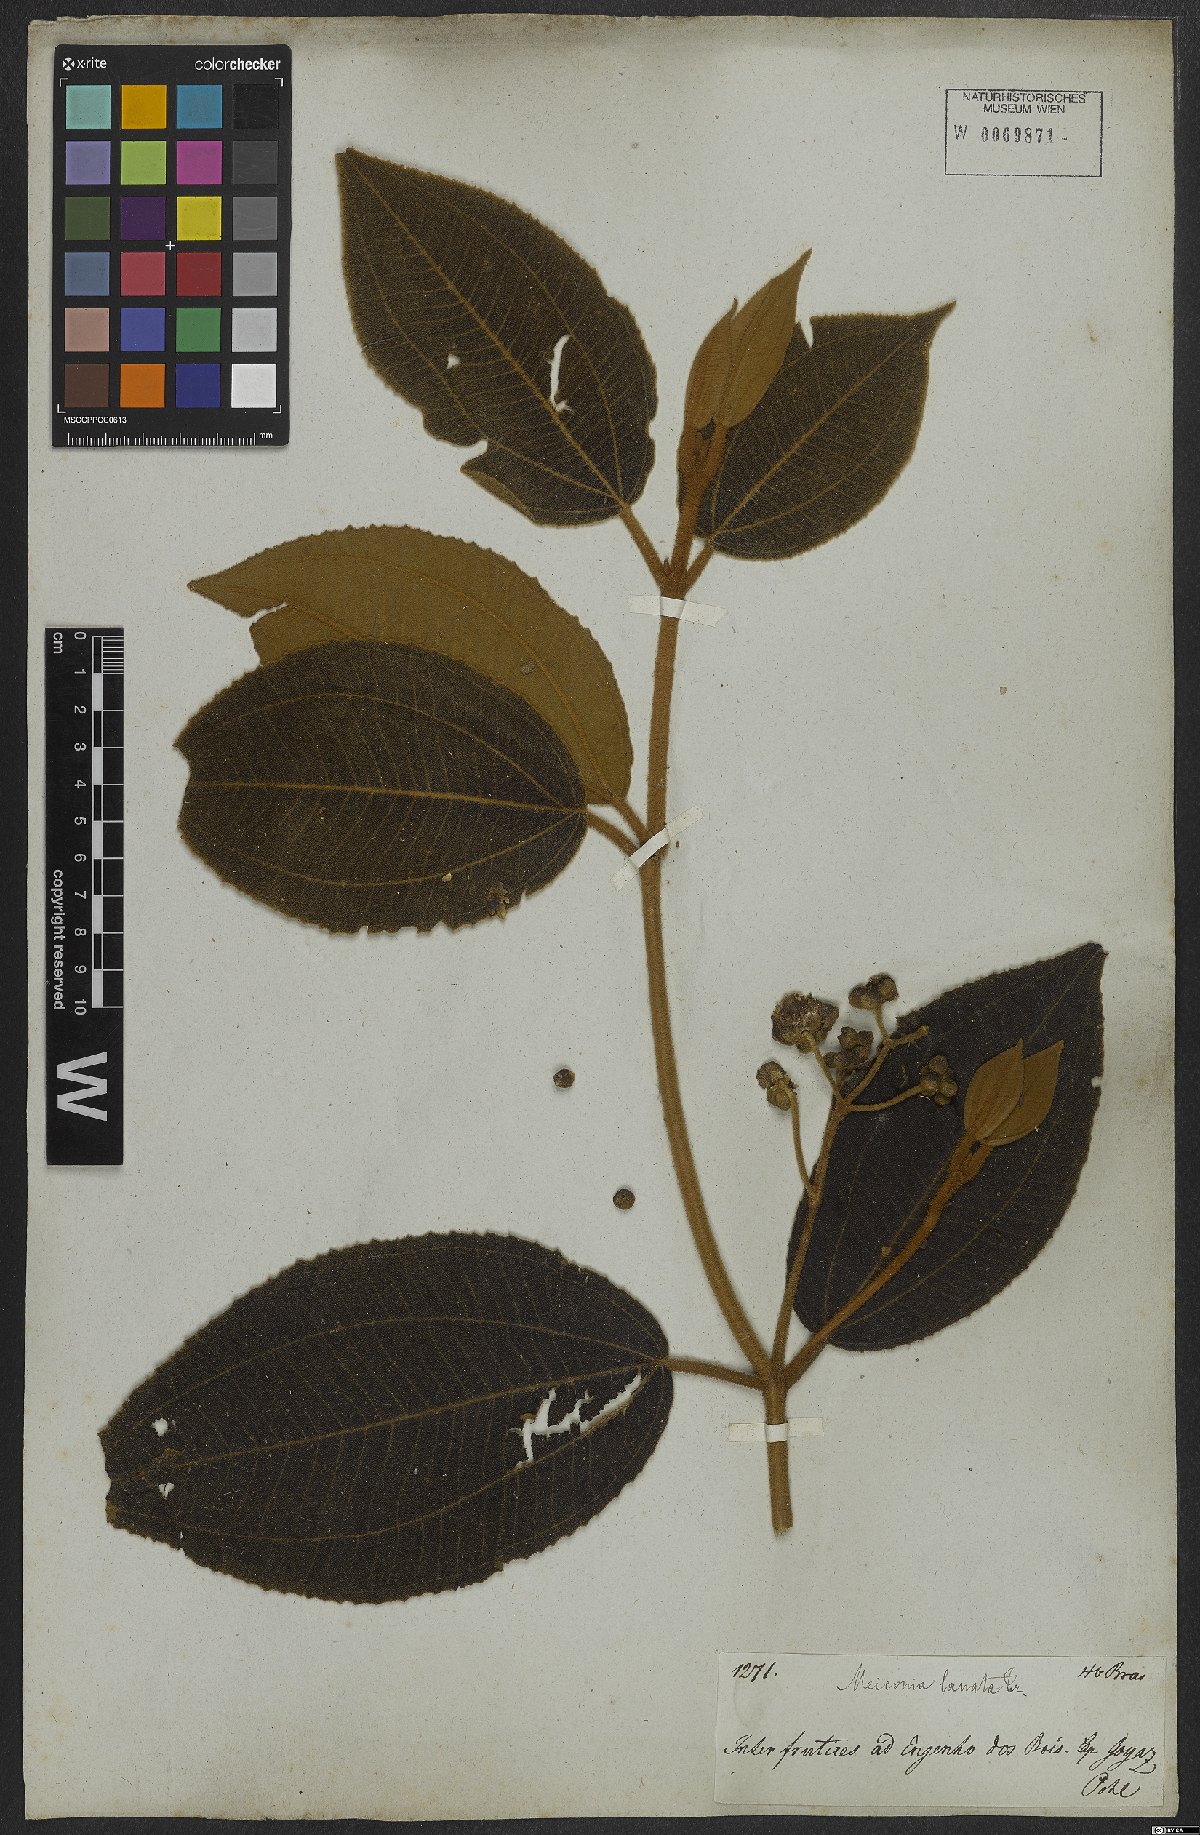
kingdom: Plantae
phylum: Tracheophyta
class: Magnoliopsida
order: Myrtales
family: Melastomataceae
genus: Miconia
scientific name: Miconia lanata
